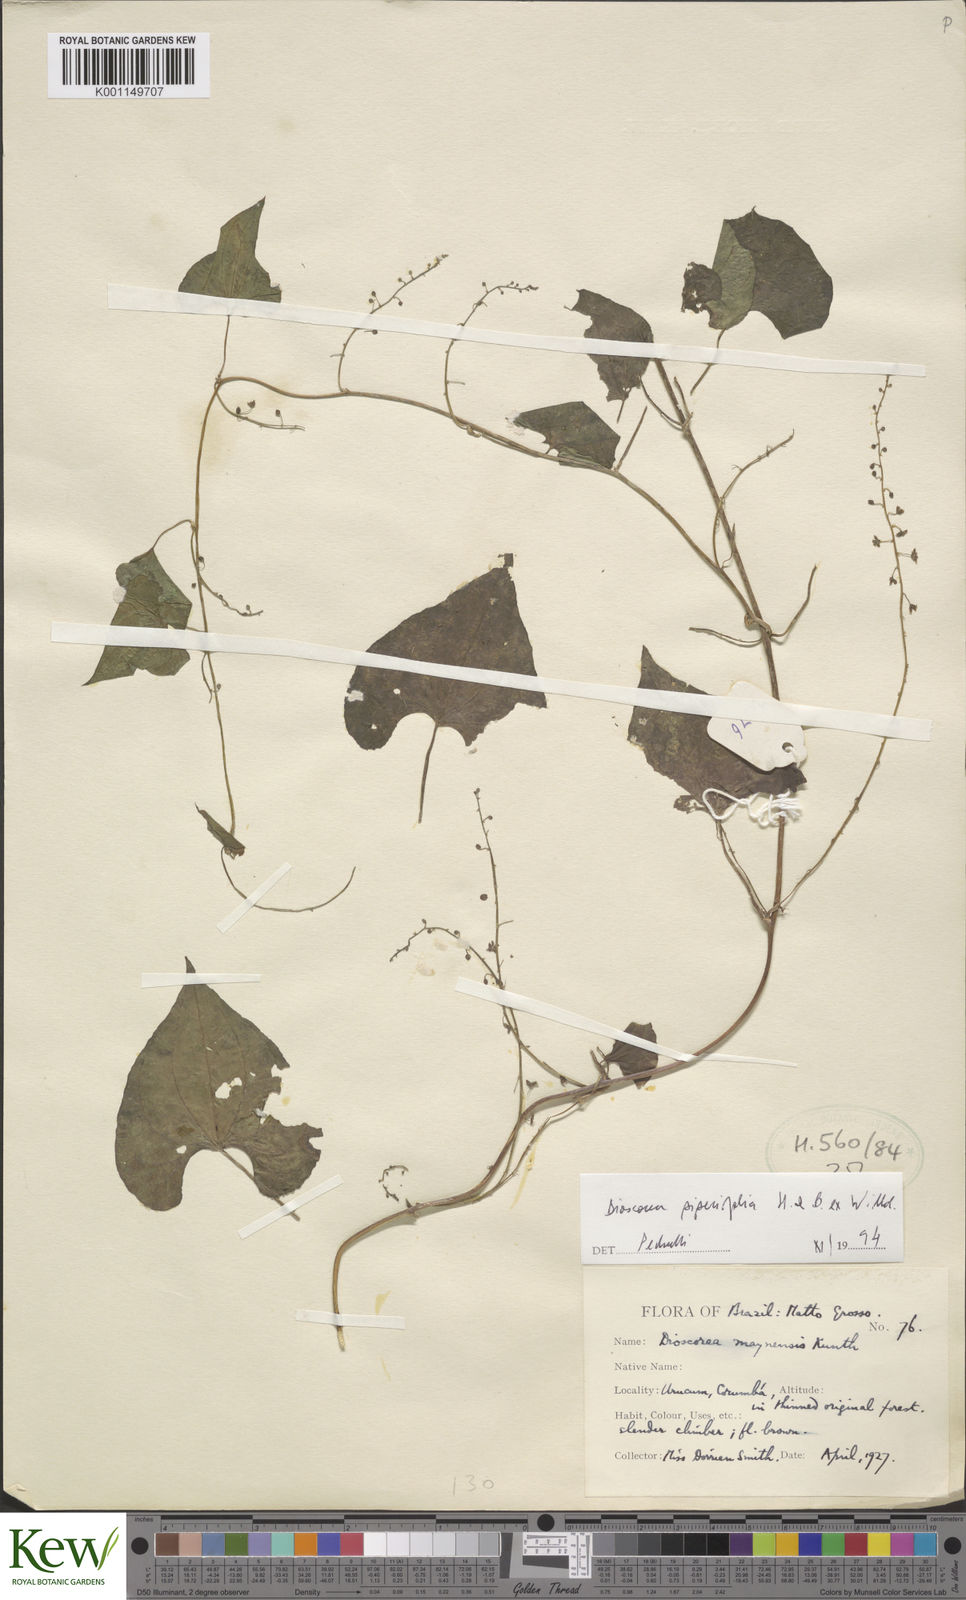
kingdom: Plantae
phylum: Tracheophyta
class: Liliopsida
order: Dioscoreales
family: Dioscoreaceae
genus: Dioscorea
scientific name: Dioscorea piperifolia
